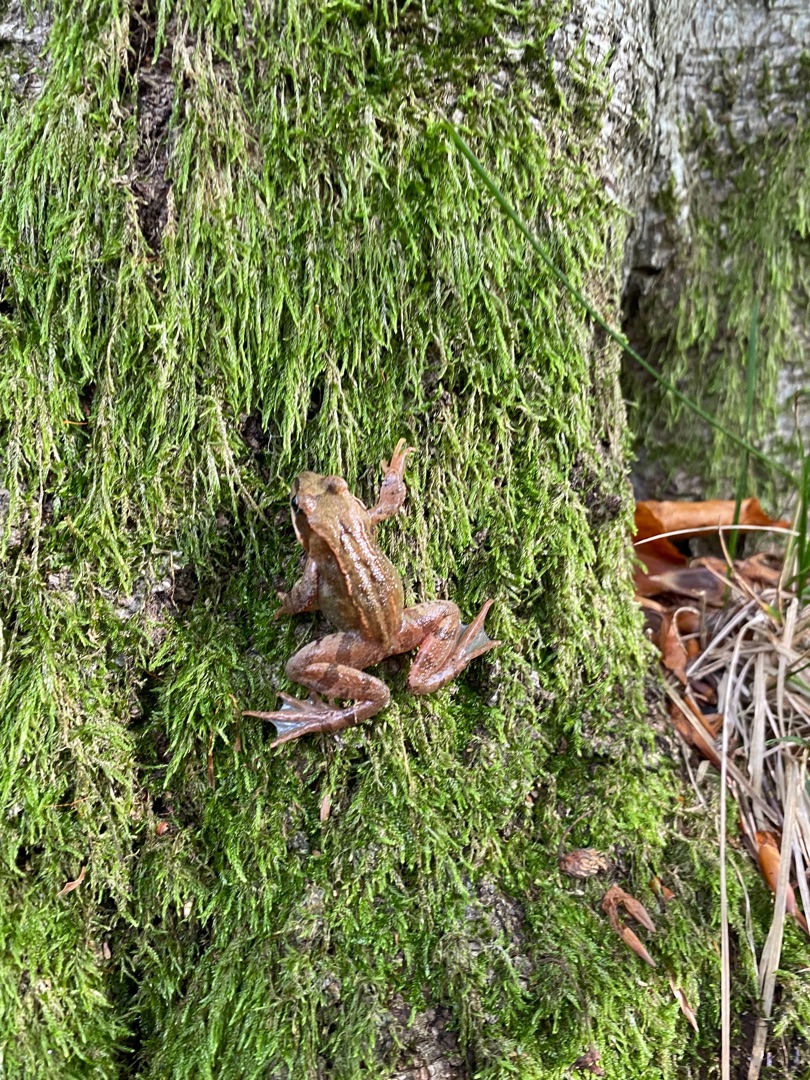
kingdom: Animalia
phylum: Chordata
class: Amphibia
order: Anura
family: Ranidae
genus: Rana
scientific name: Rana temporaria
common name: Butsnudet frø
